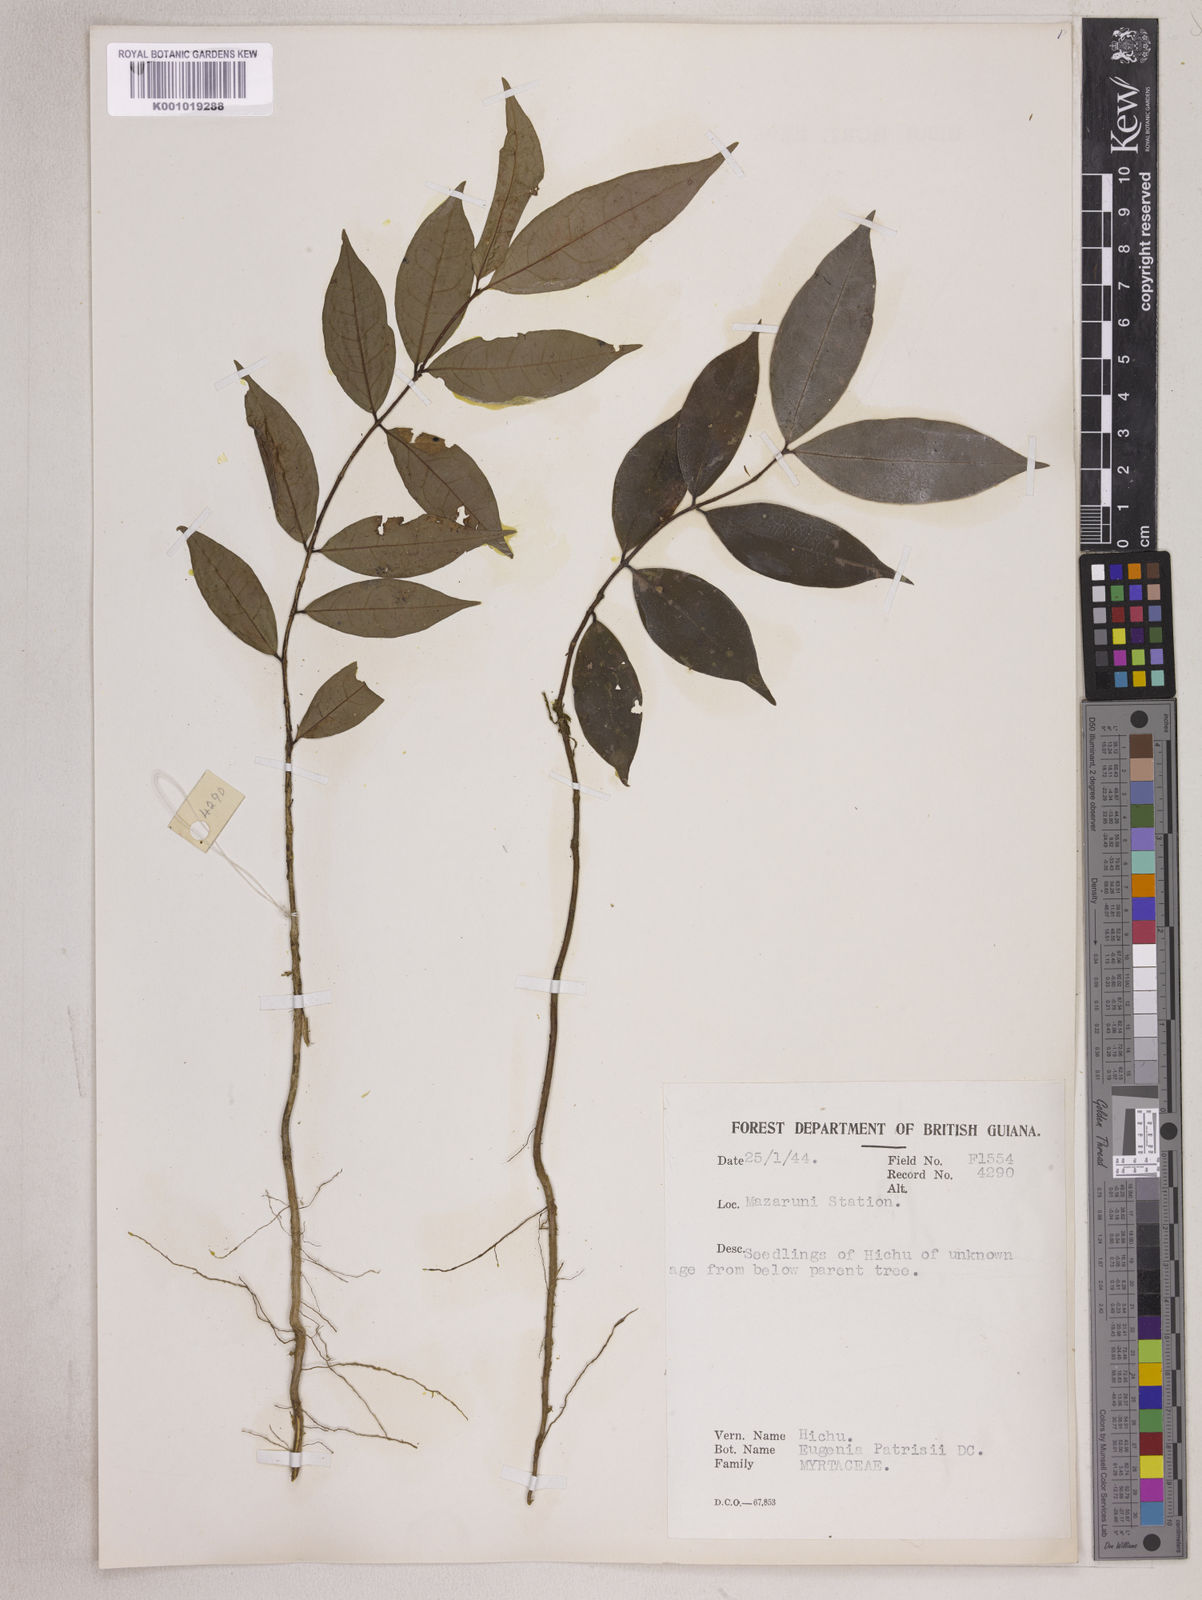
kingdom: Plantae
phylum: Tracheophyta
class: Magnoliopsida
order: Myrtales
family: Myrtaceae
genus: Eugenia
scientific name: Eugenia patrisii
